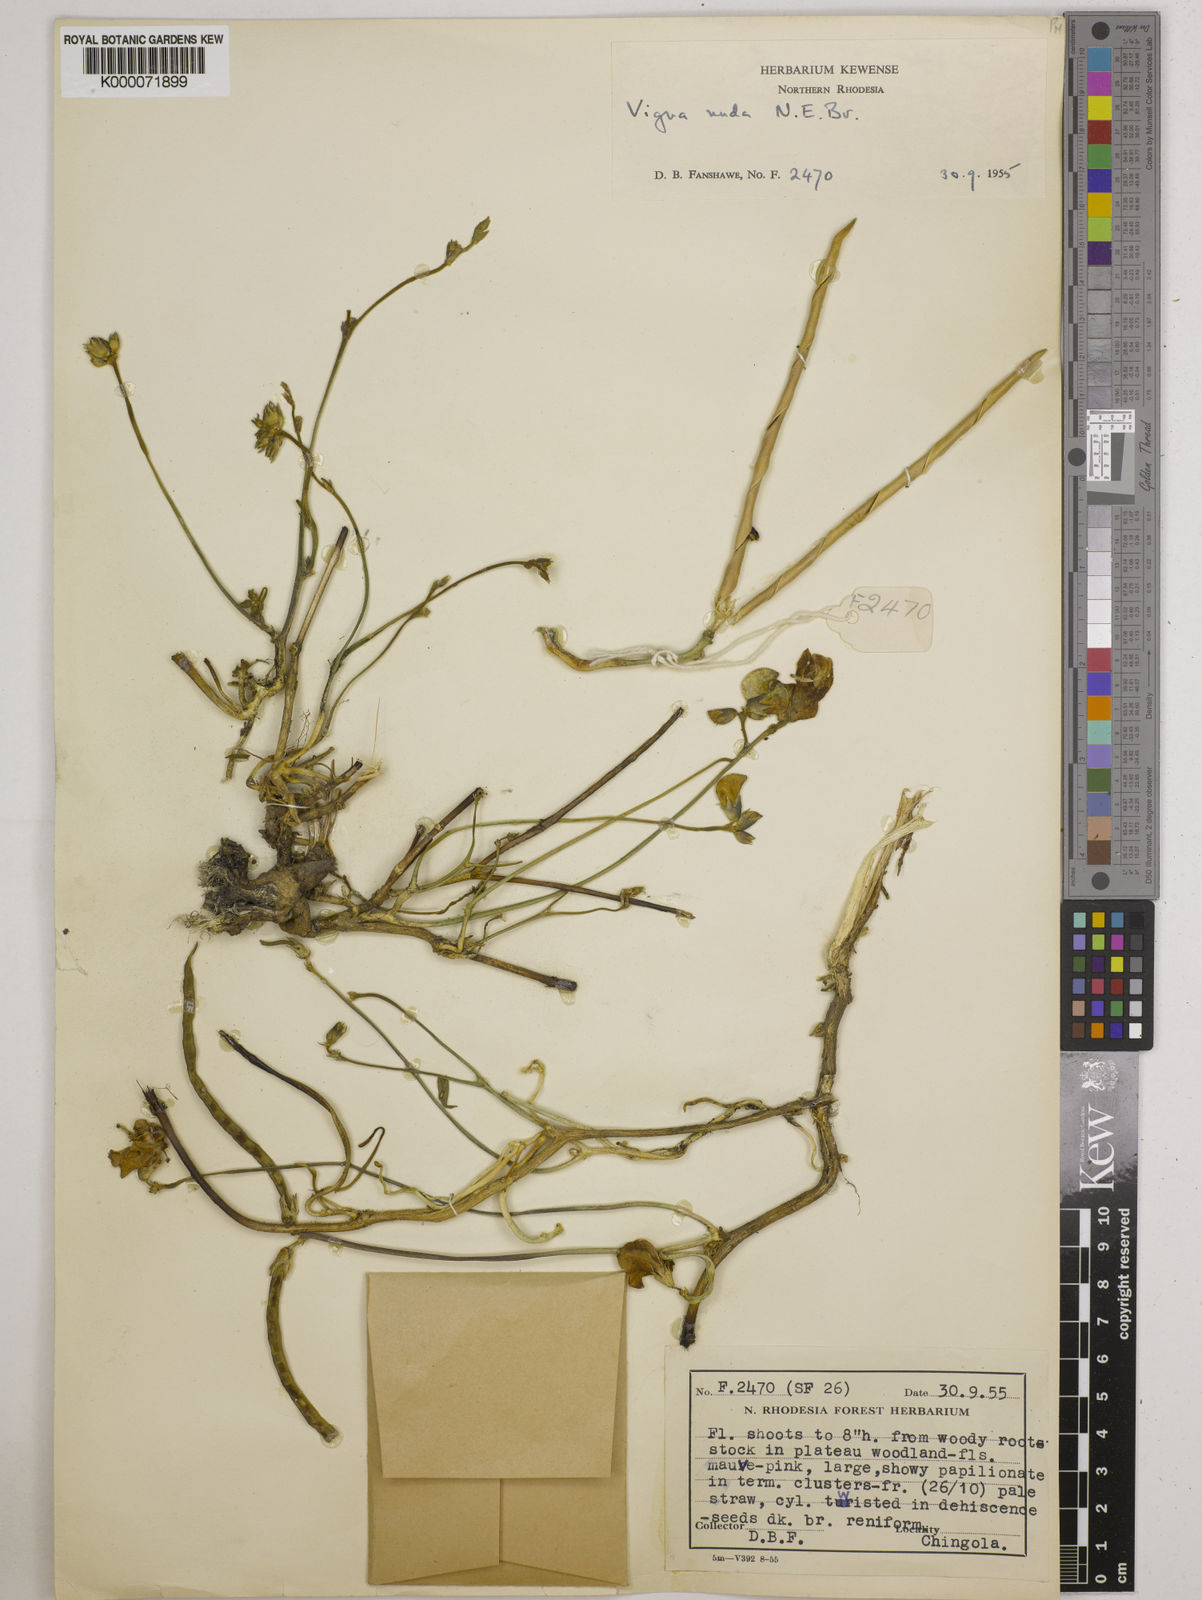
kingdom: Plantae
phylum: Tracheophyta
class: Magnoliopsida
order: Fabales
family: Fabaceae
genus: Vigna
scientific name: Vigna antunesii
